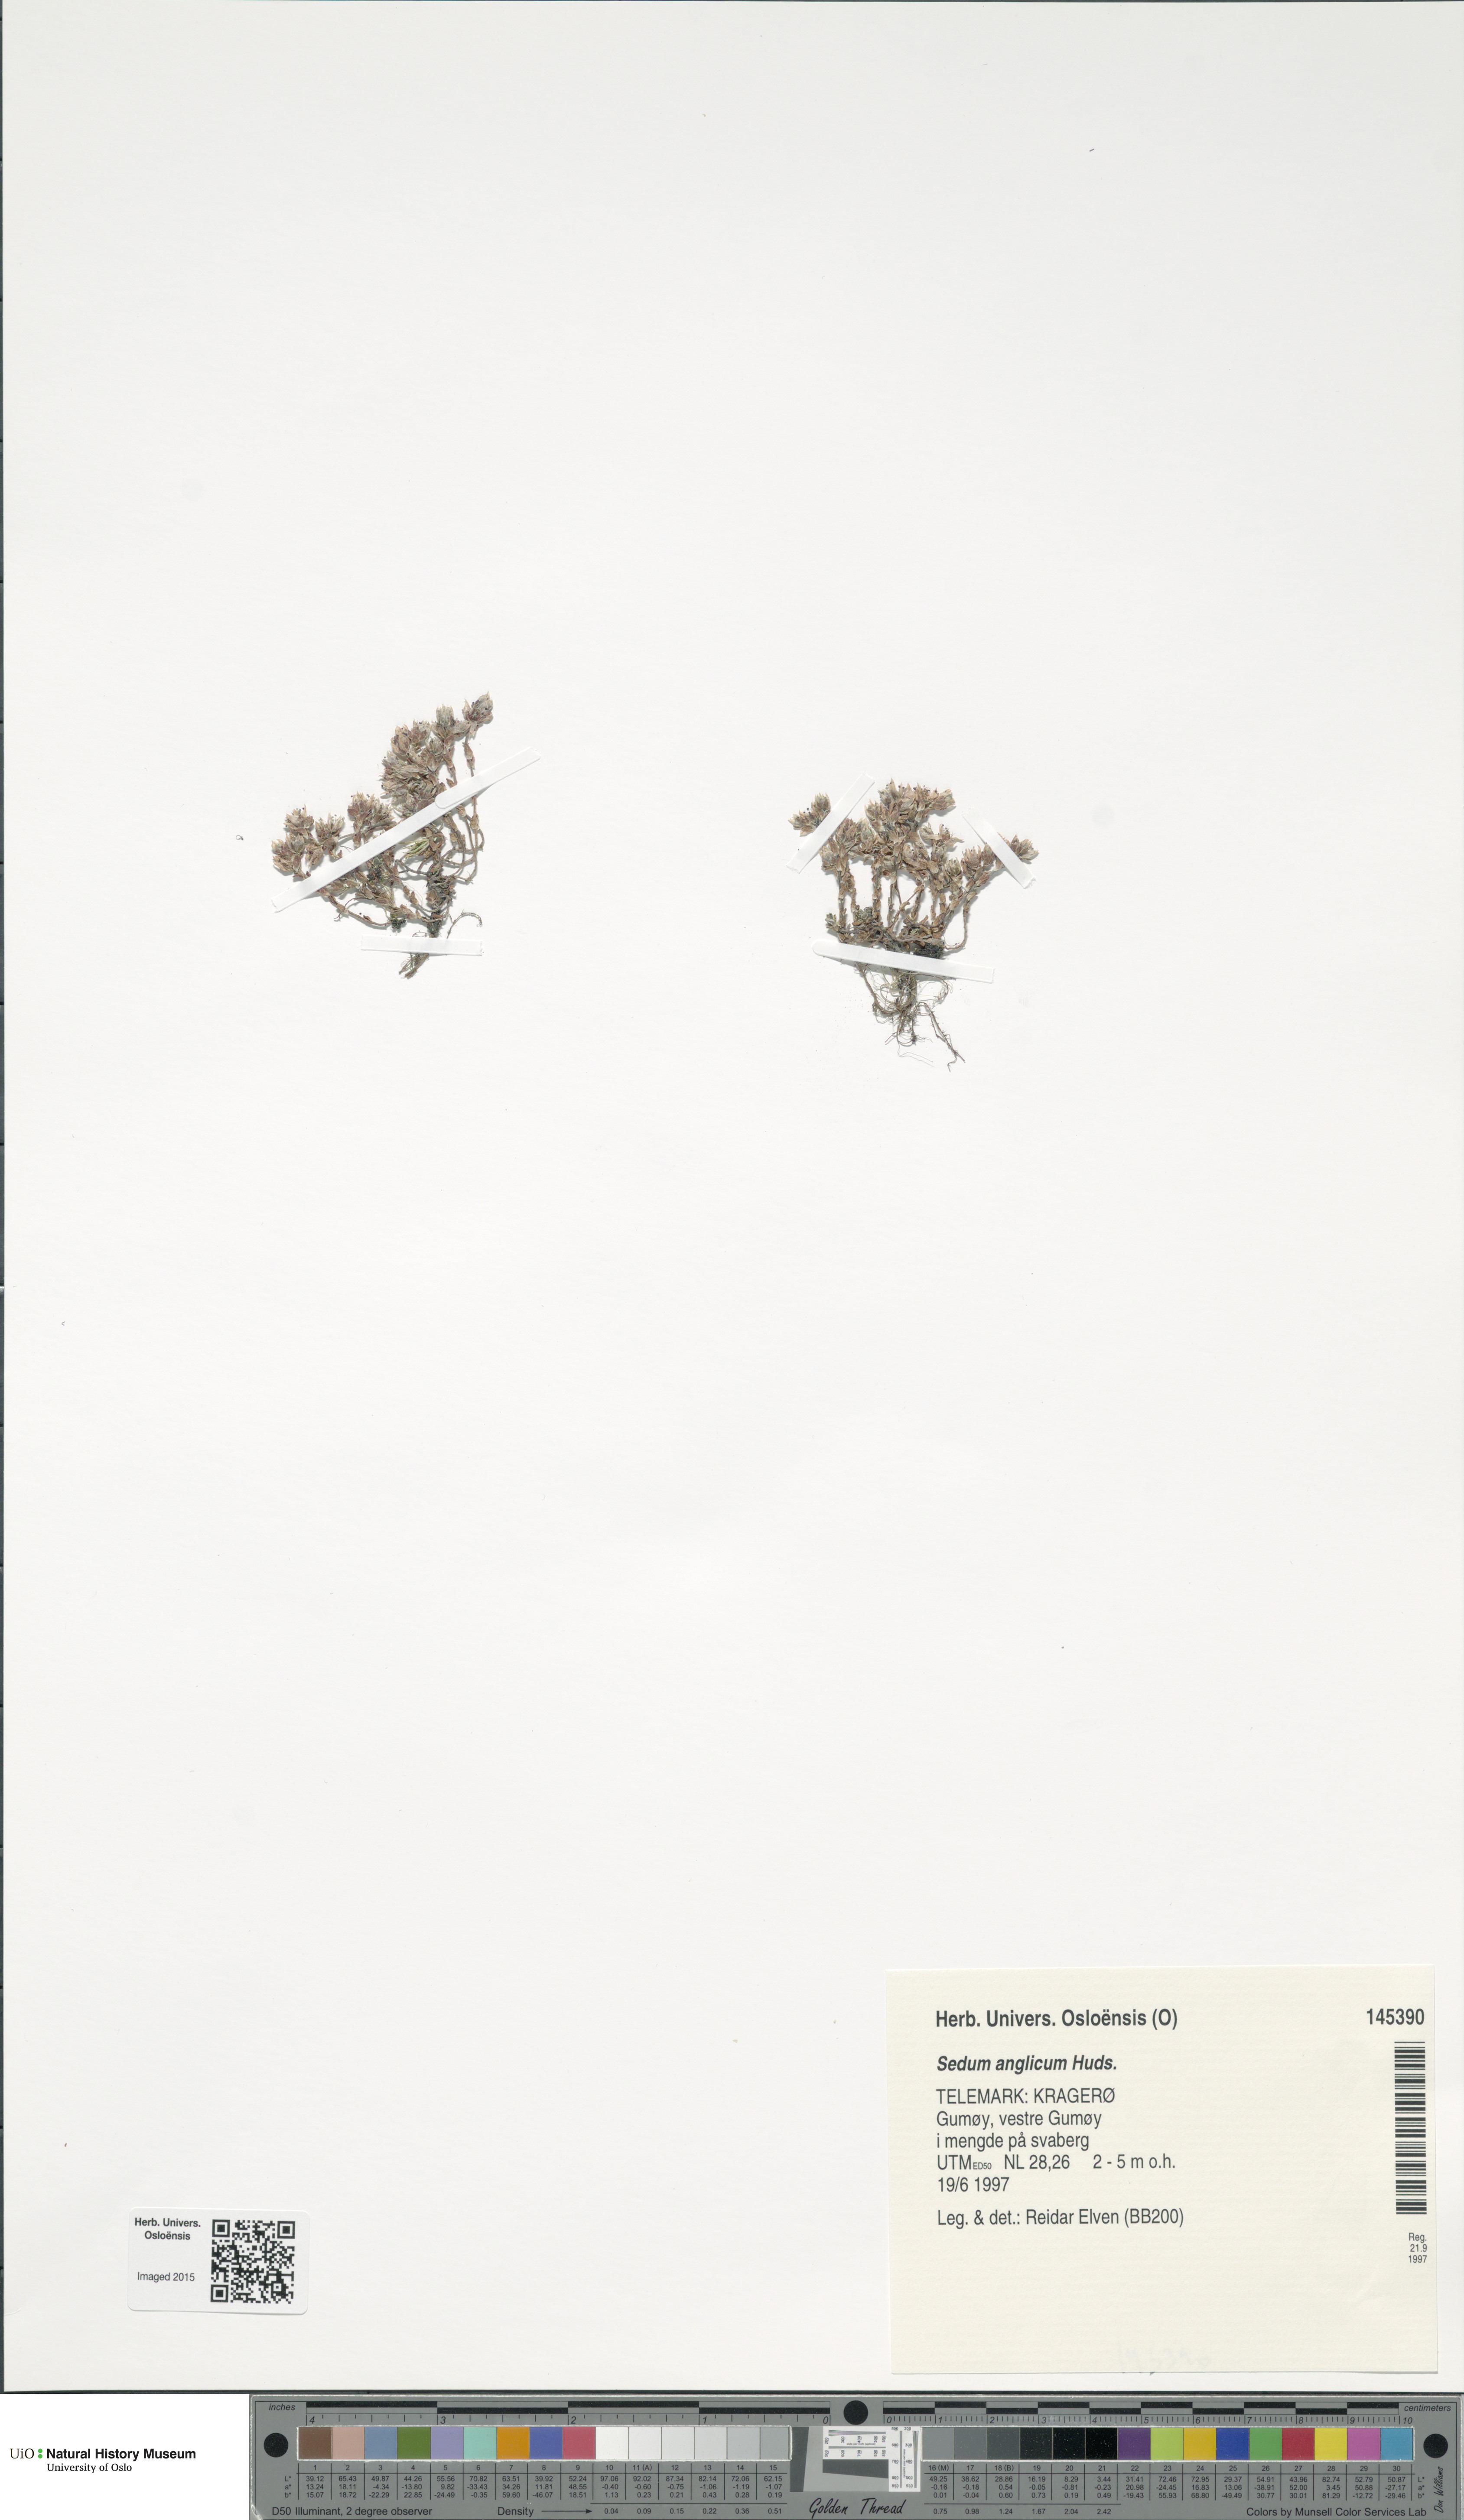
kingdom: Plantae
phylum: Tracheophyta
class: Magnoliopsida
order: Saxifragales
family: Crassulaceae
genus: Sedum
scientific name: Sedum anglicum
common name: English stonecrop
